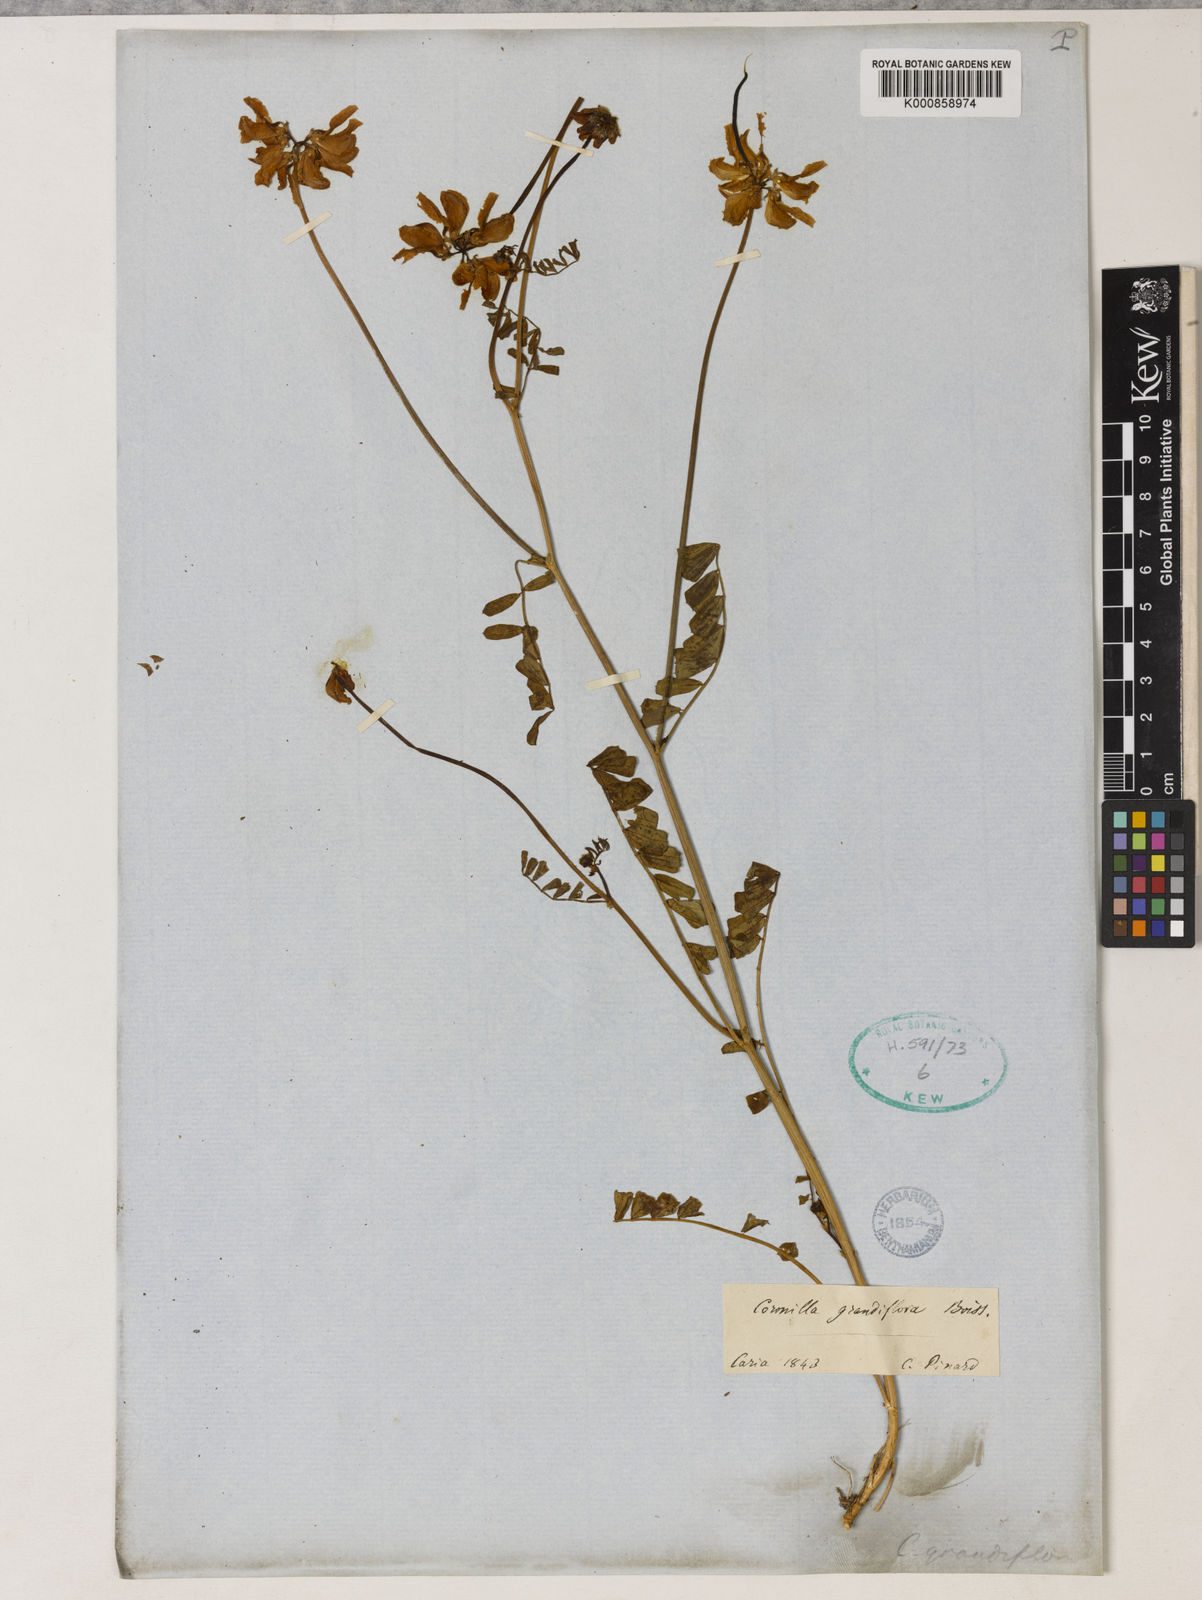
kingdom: Plantae
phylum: Tracheophyta
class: Magnoliopsida
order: Fabales
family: Fabaceae
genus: Coronilla
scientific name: Coronilla lassenii
